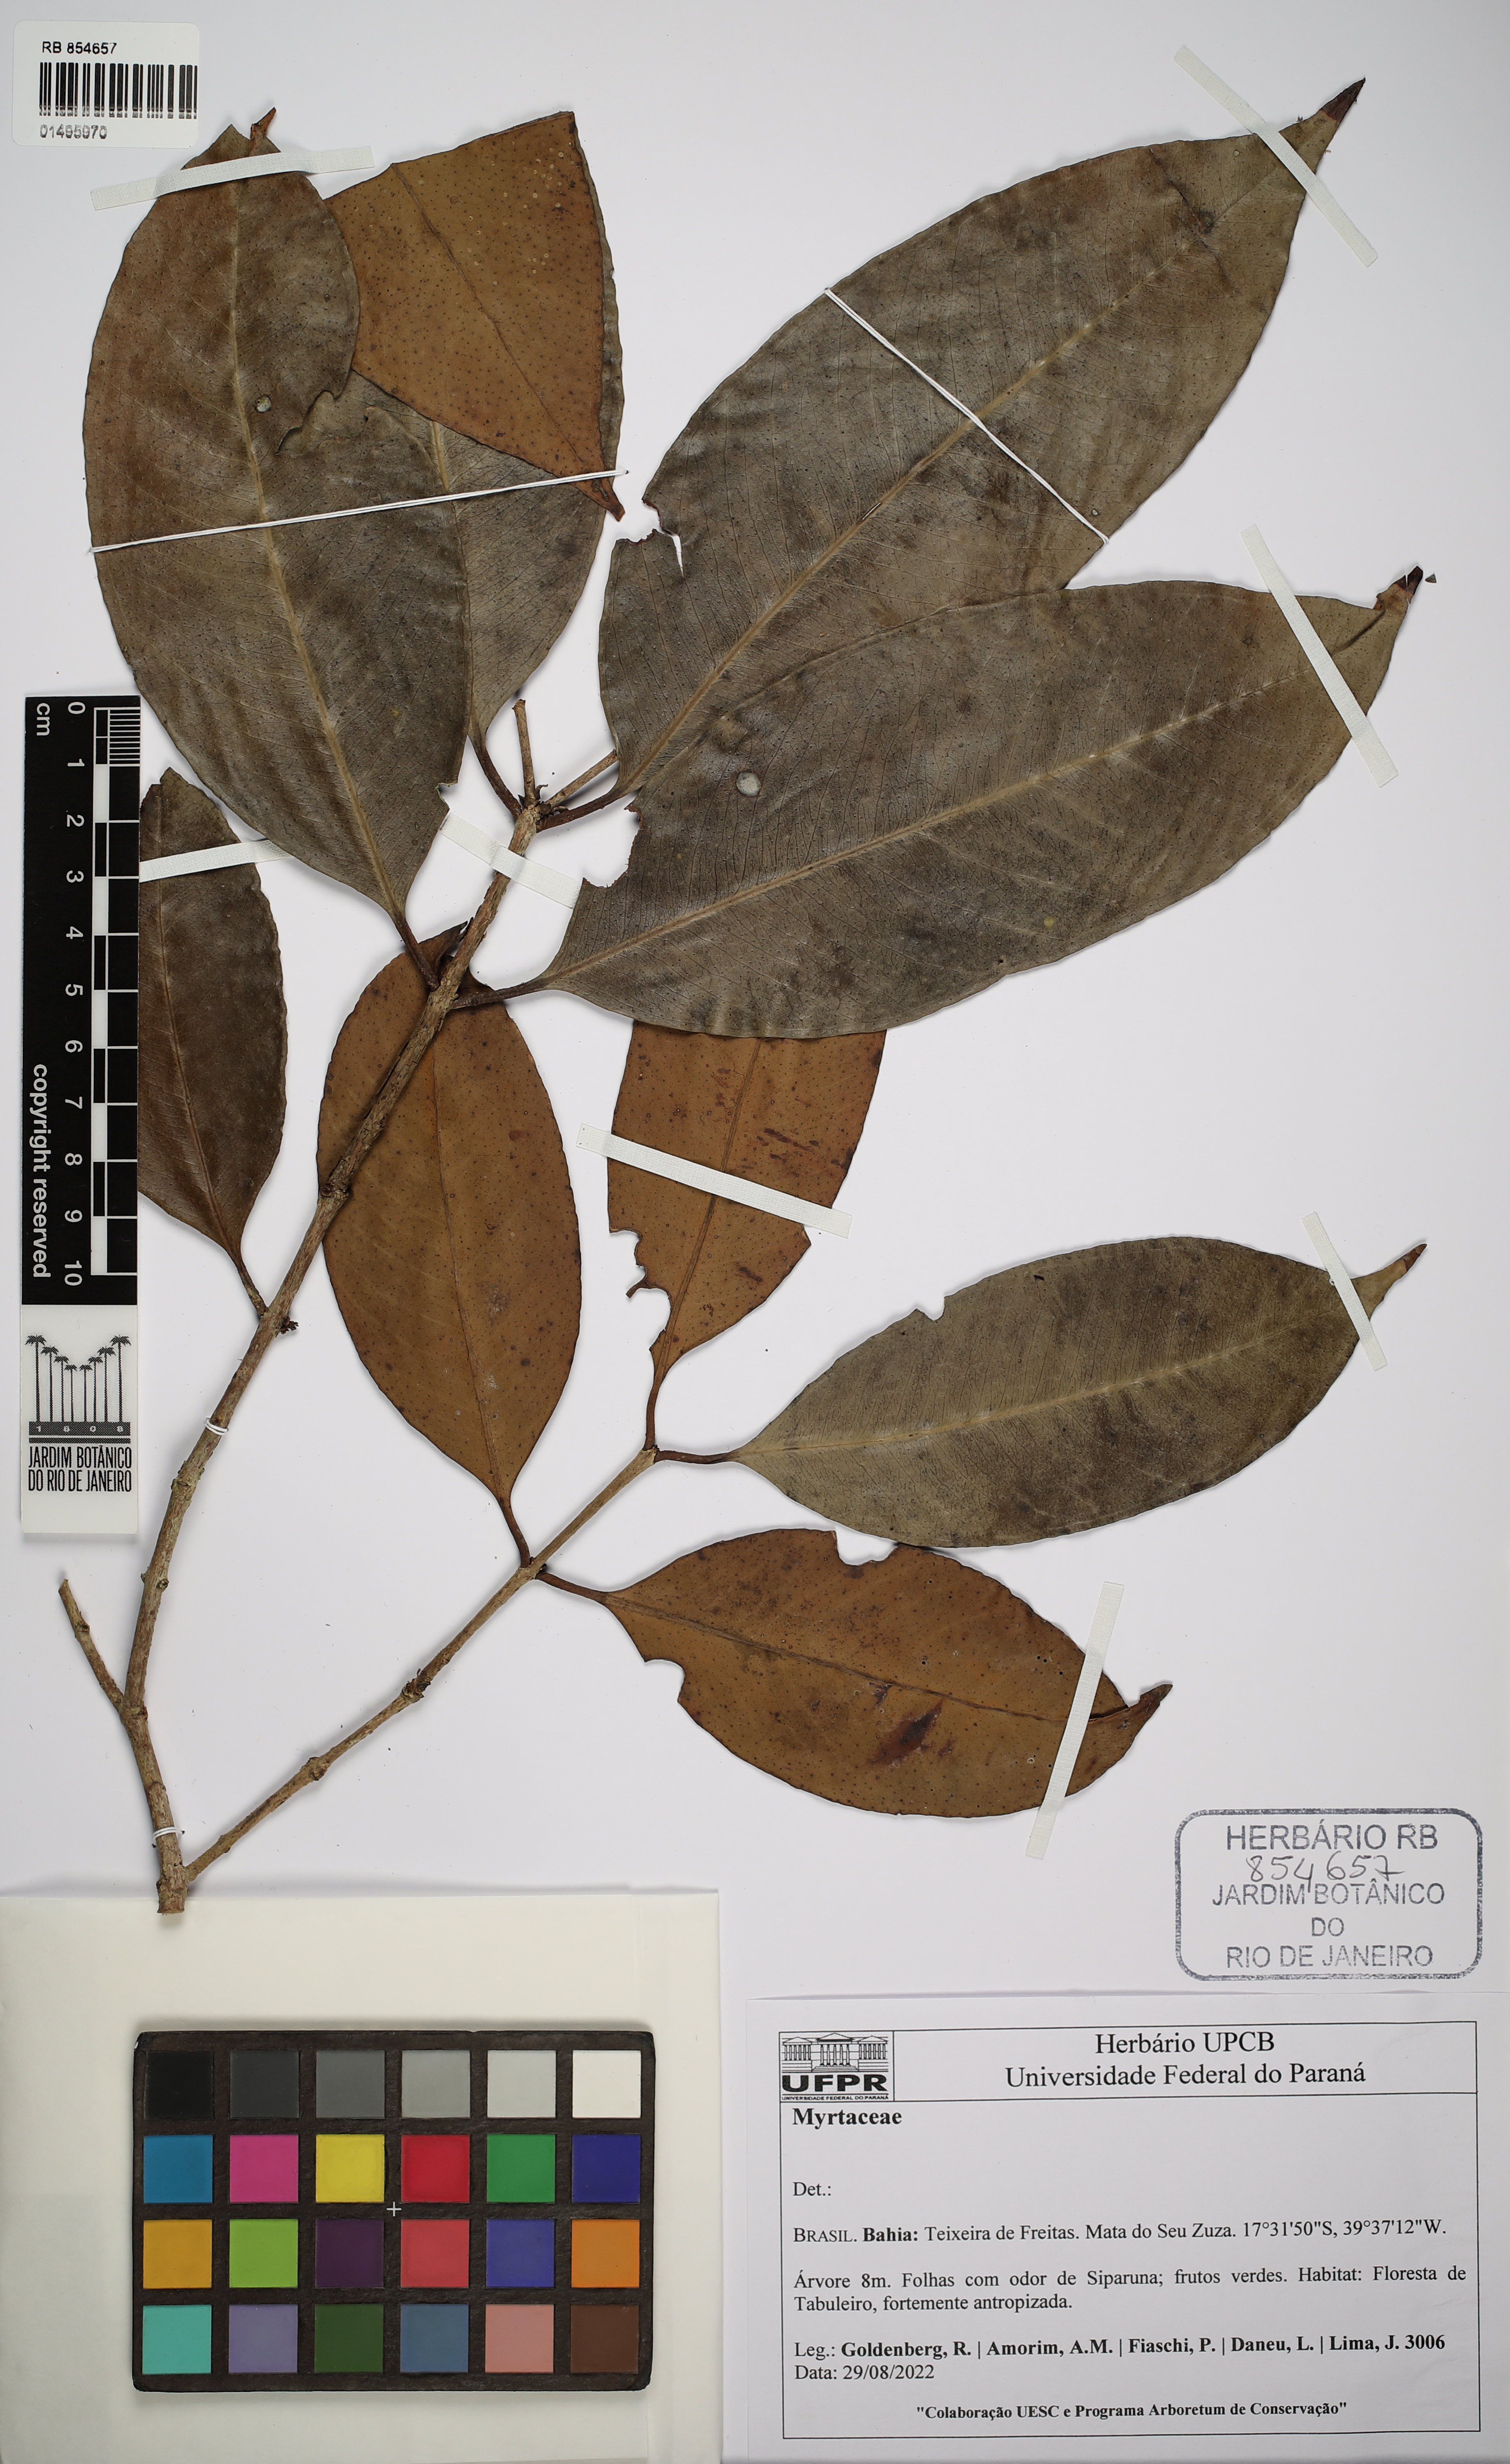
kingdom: Plantae
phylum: Tracheophyta
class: Magnoliopsida
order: Myrtales
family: Myrtaceae
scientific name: Myrtaceae
